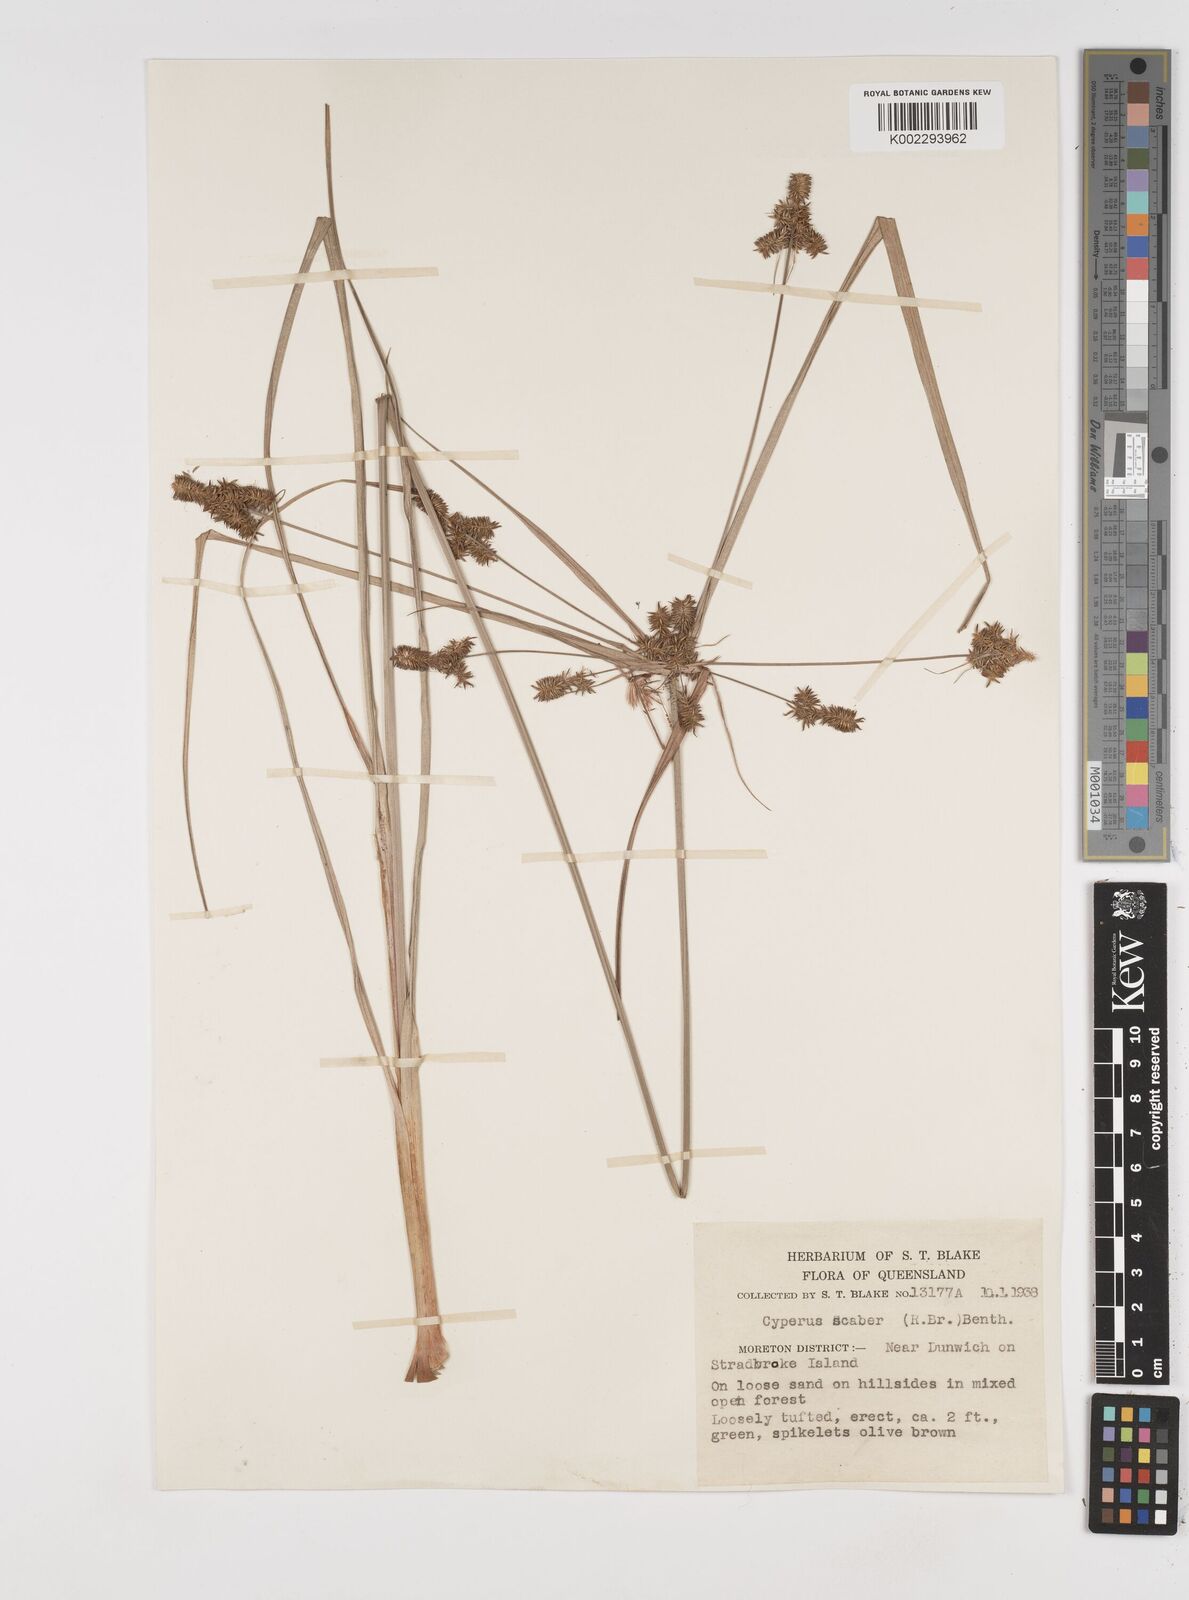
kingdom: Plantae
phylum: Tracheophyta
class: Liliopsida
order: Poales
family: Cyperaceae
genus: Cyperus
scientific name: Cyperus scaber
